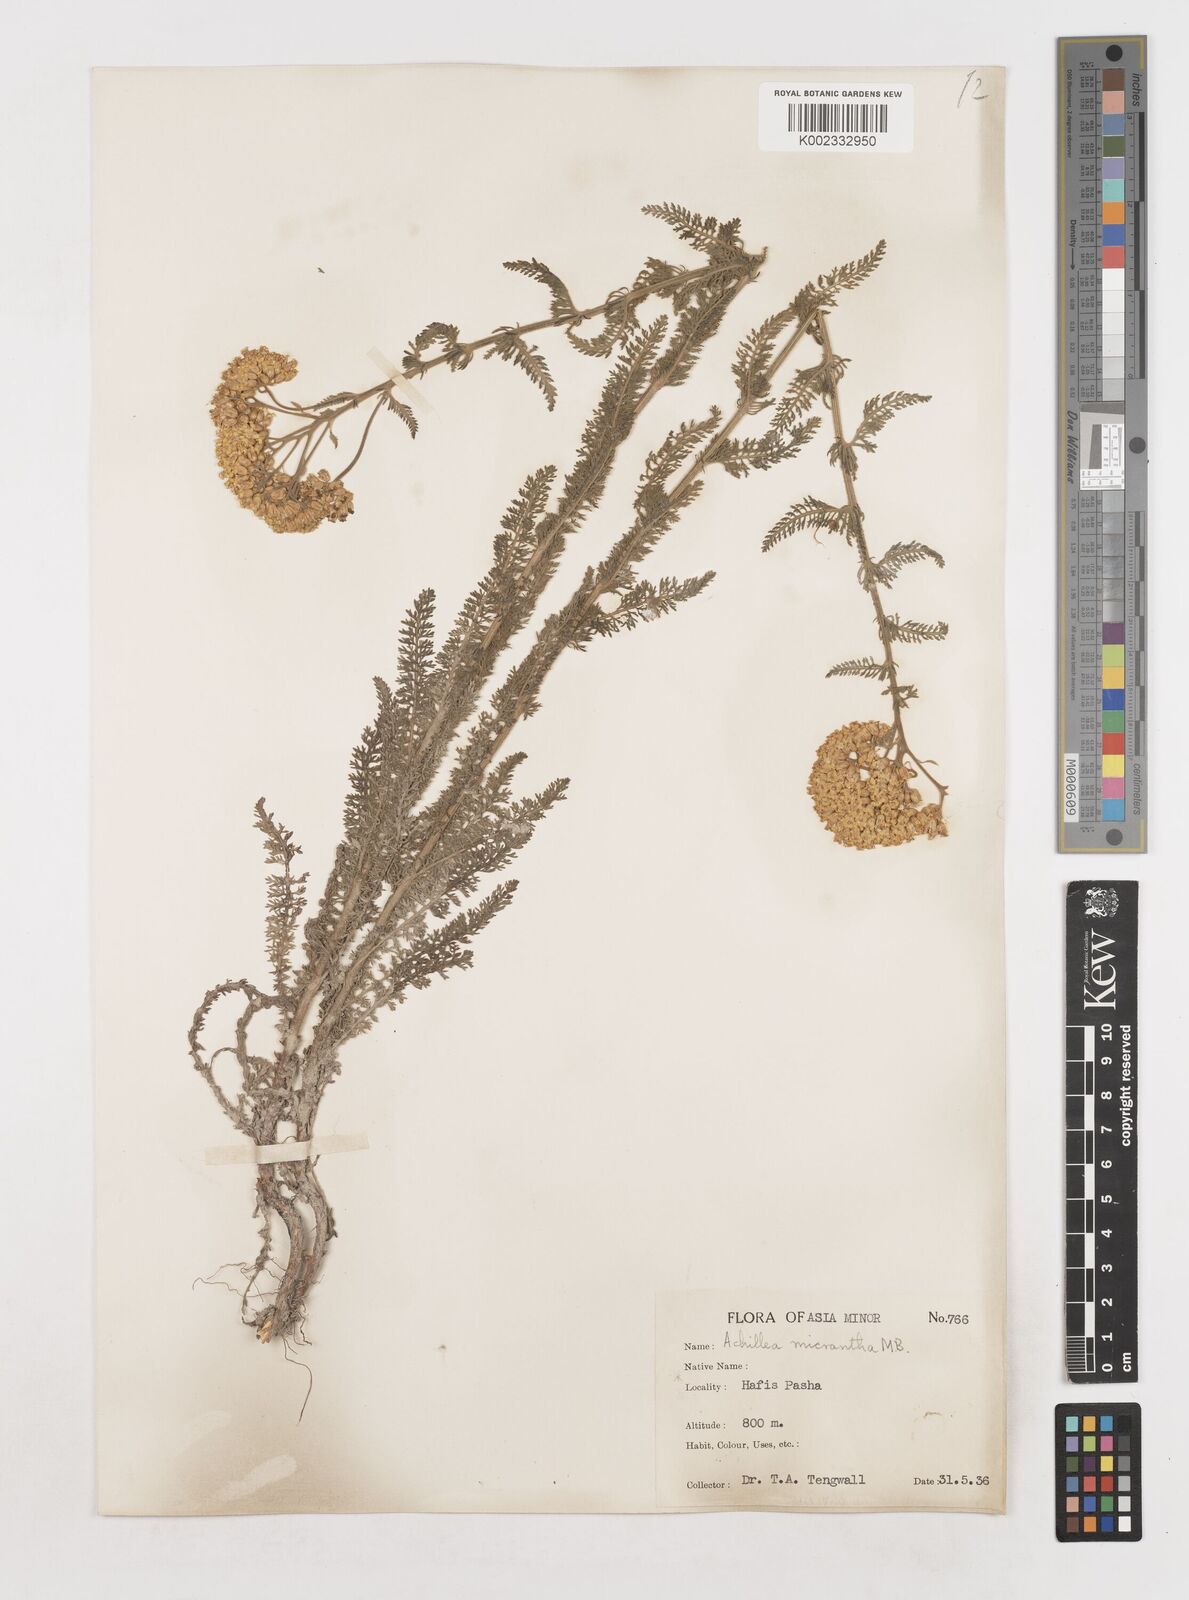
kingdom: Plantae
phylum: Tracheophyta
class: Magnoliopsida
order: Asterales
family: Asteraceae
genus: Achillea
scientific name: Achillea arabica
